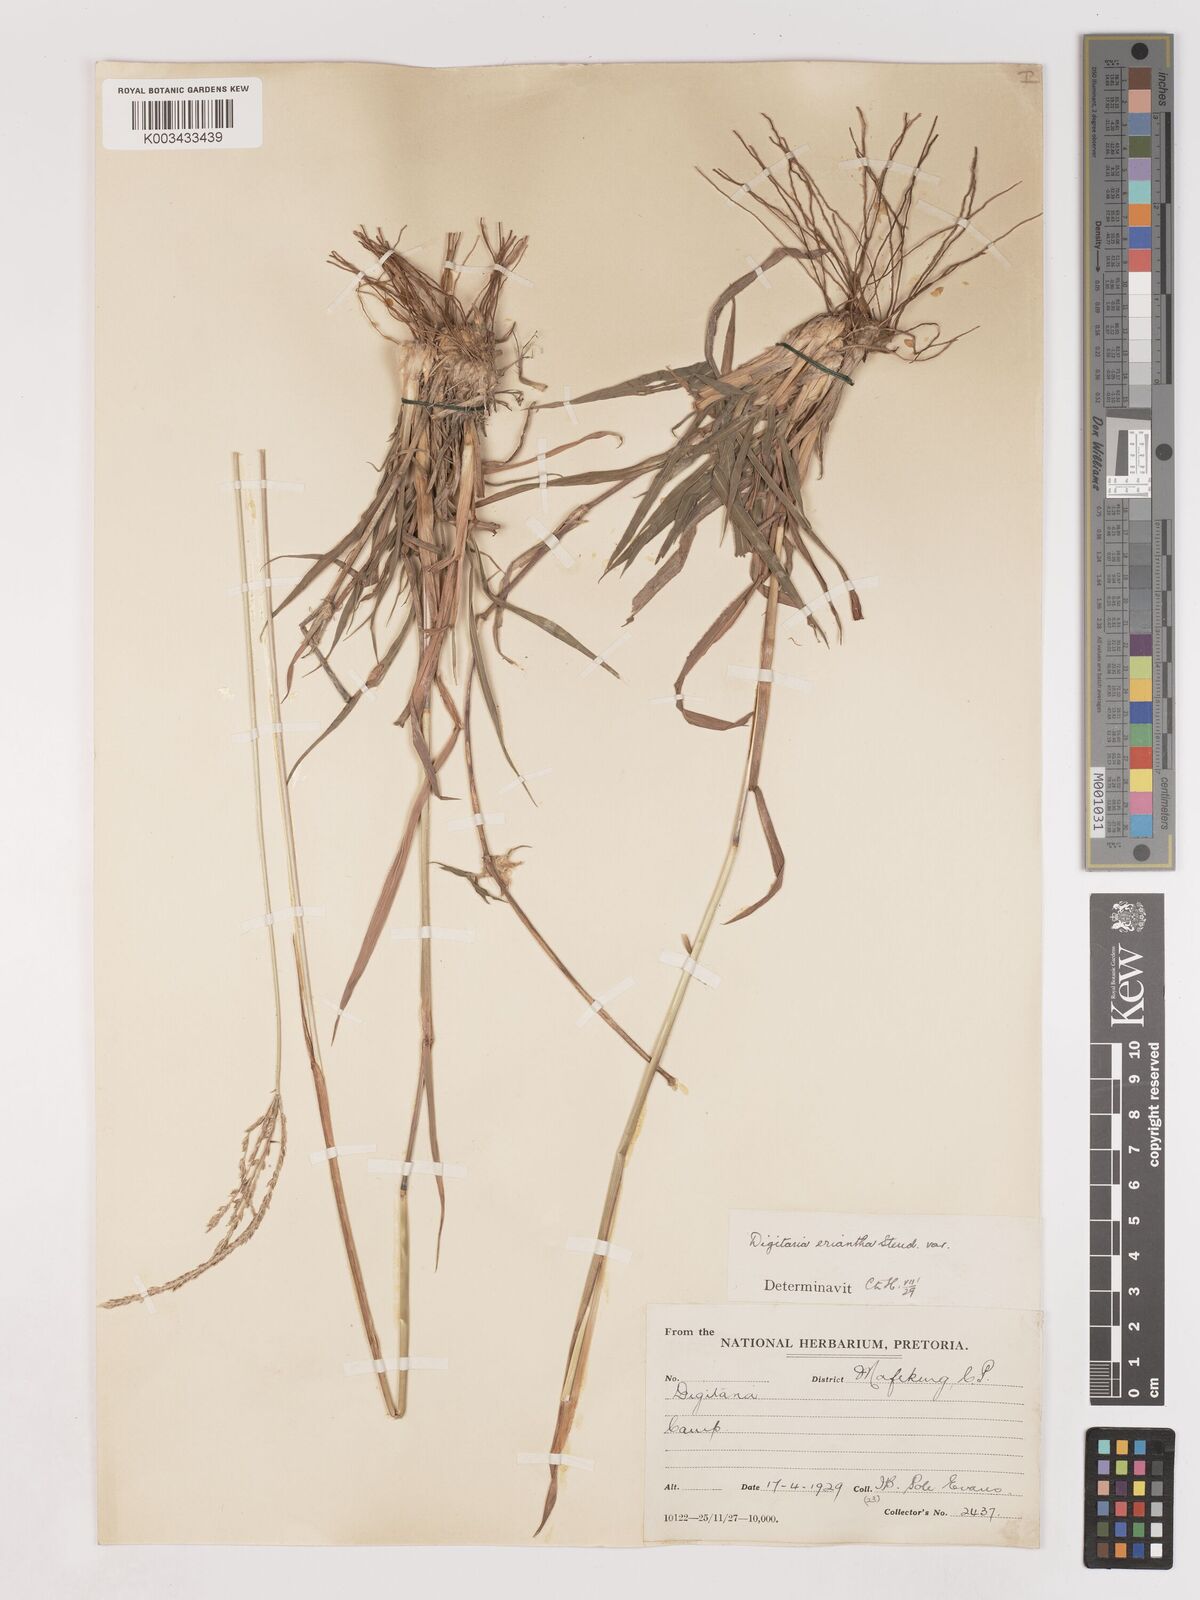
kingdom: Plantae
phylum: Tracheophyta
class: Liliopsida
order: Poales
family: Poaceae
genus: Digitaria
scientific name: Digitaria eriantha
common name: Digitgrass
